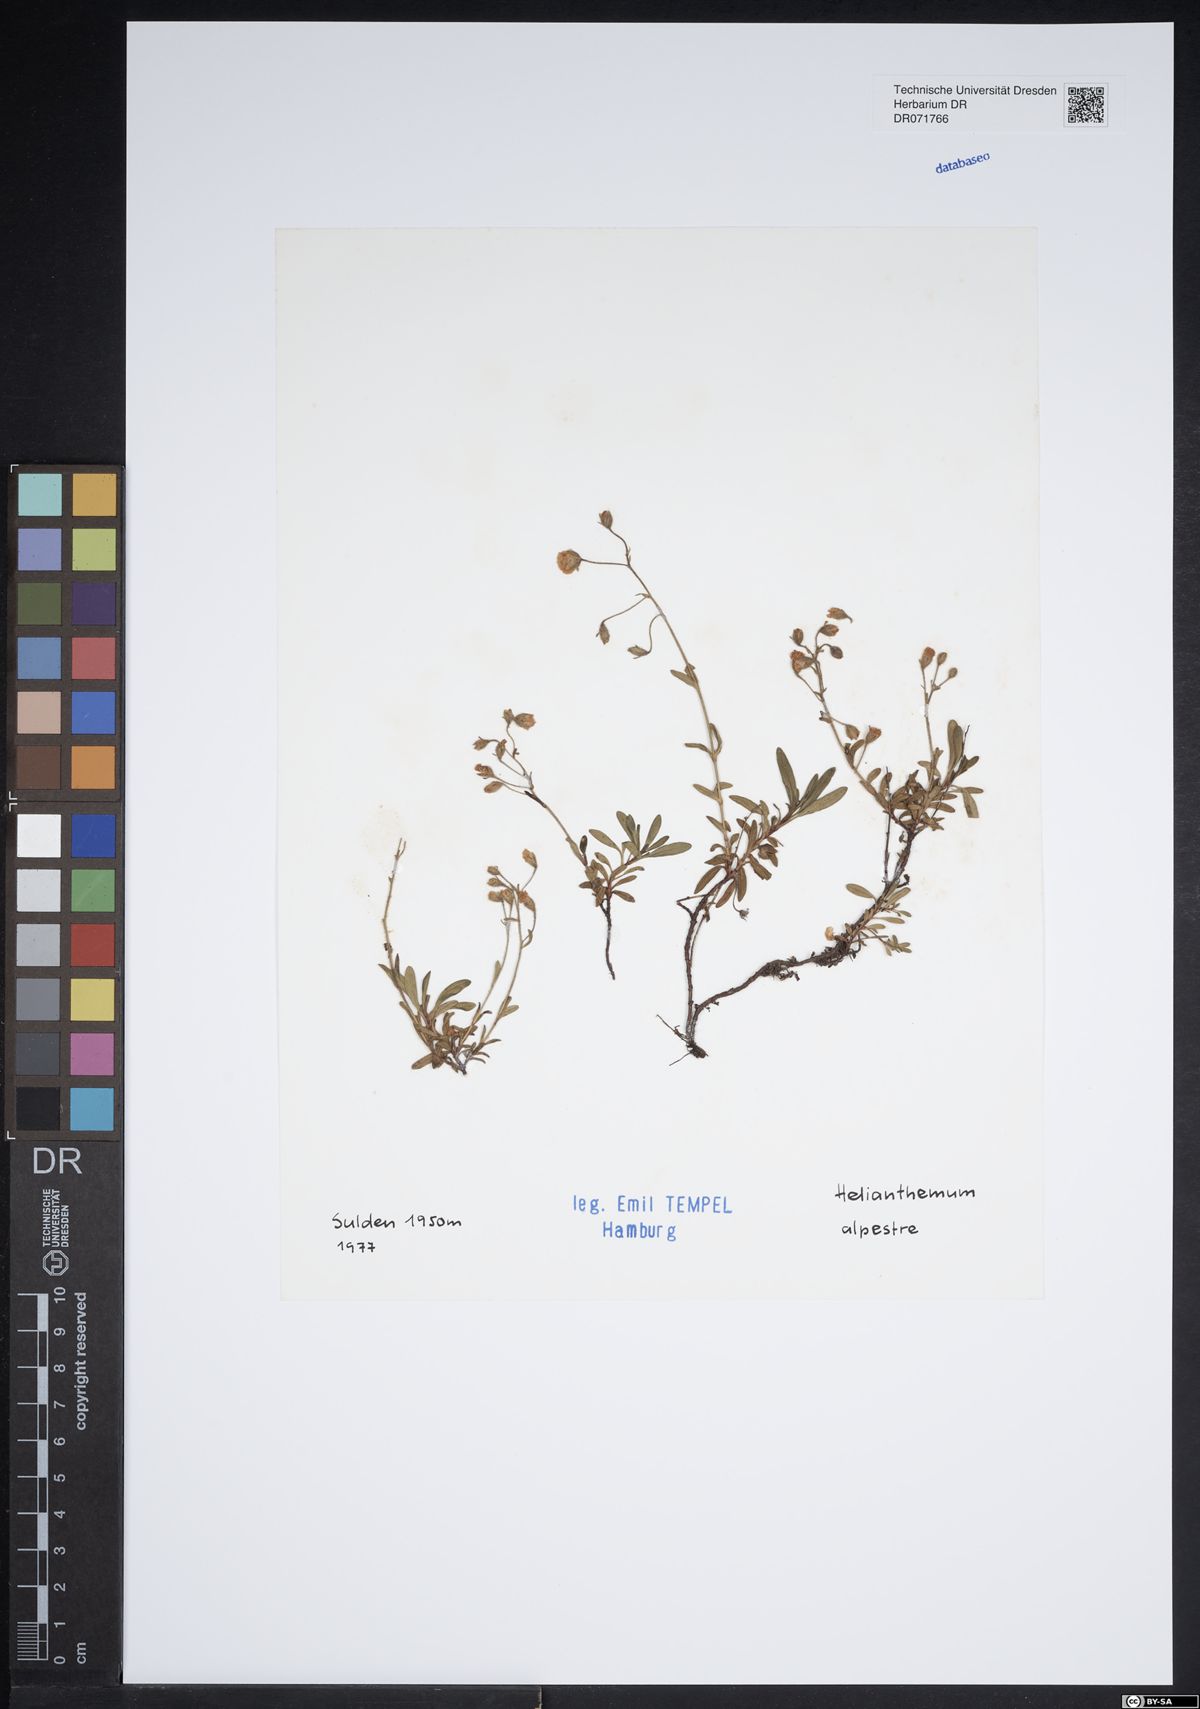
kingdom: Plantae
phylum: Tracheophyta
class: Magnoliopsida
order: Malvales
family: Cistaceae
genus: Helianthemum
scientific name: Helianthemum alpestre
